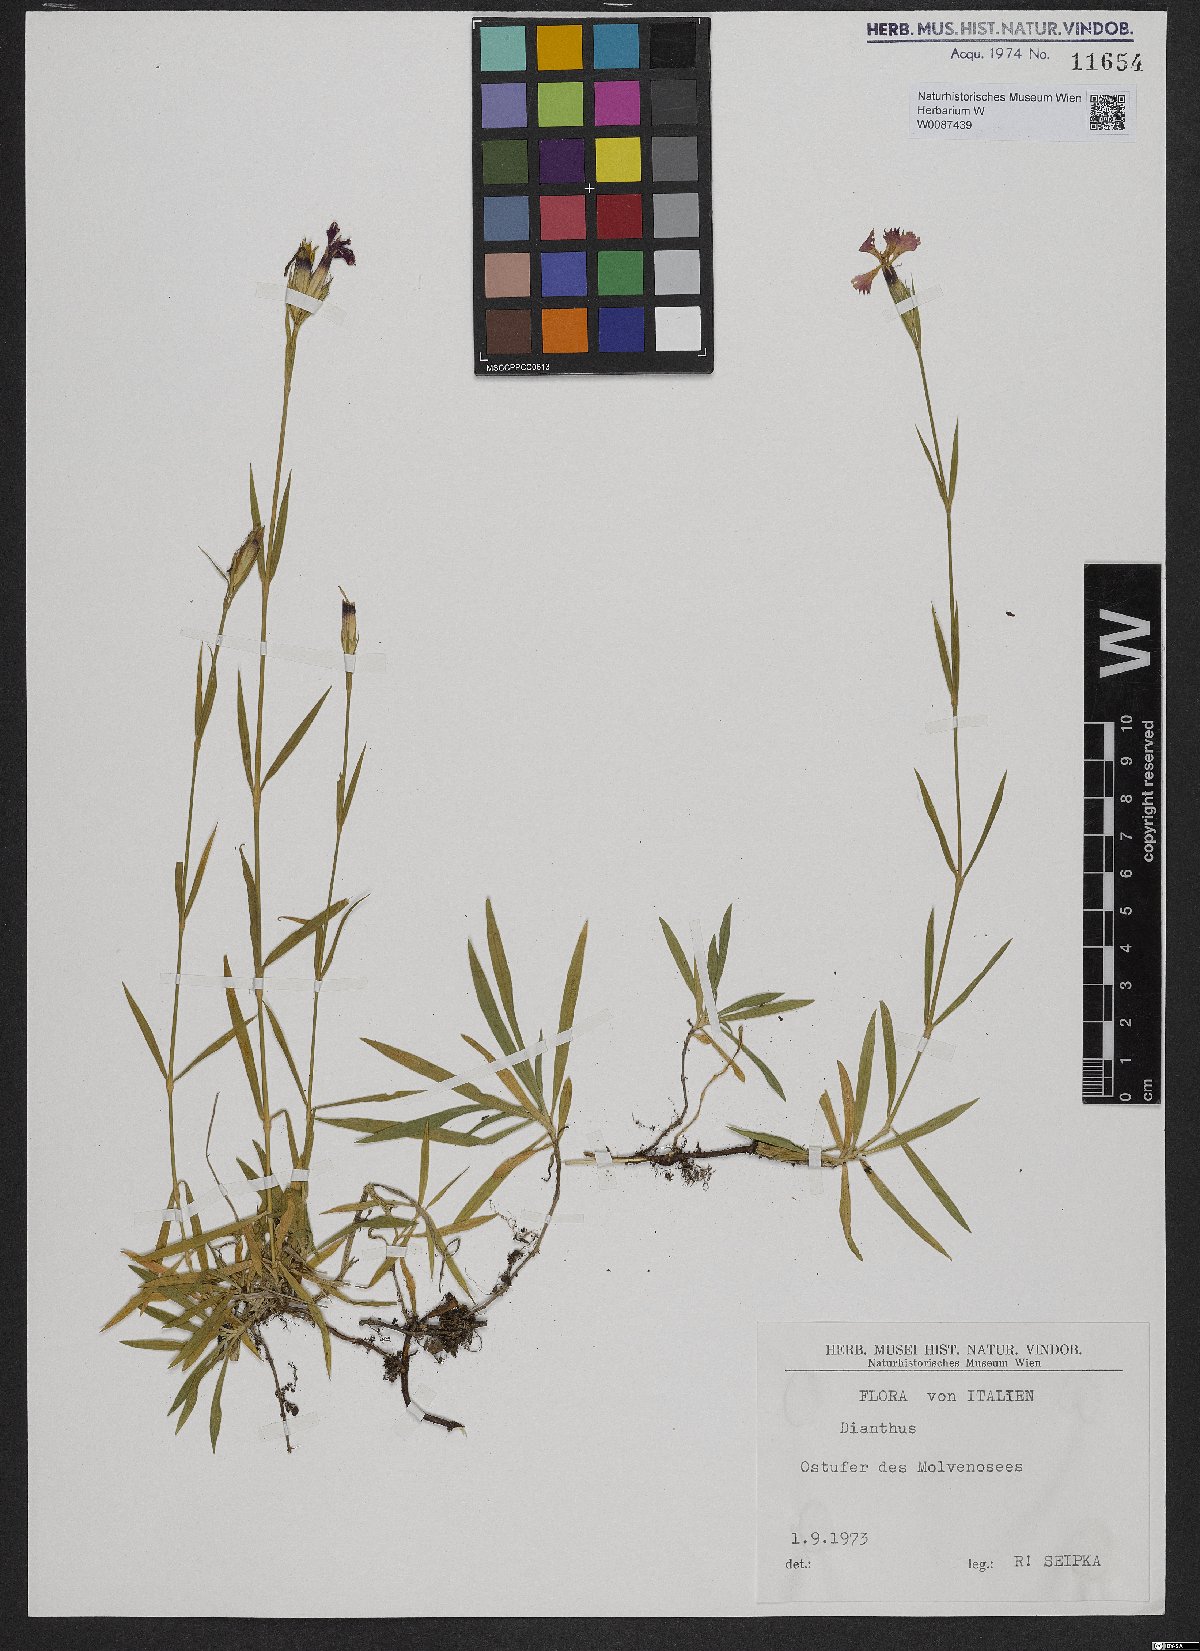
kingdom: Plantae
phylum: Tracheophyta
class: Magnoliopsida
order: Caryophyllales
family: Caryophyllaceae
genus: Dianthus
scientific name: Dianthus
